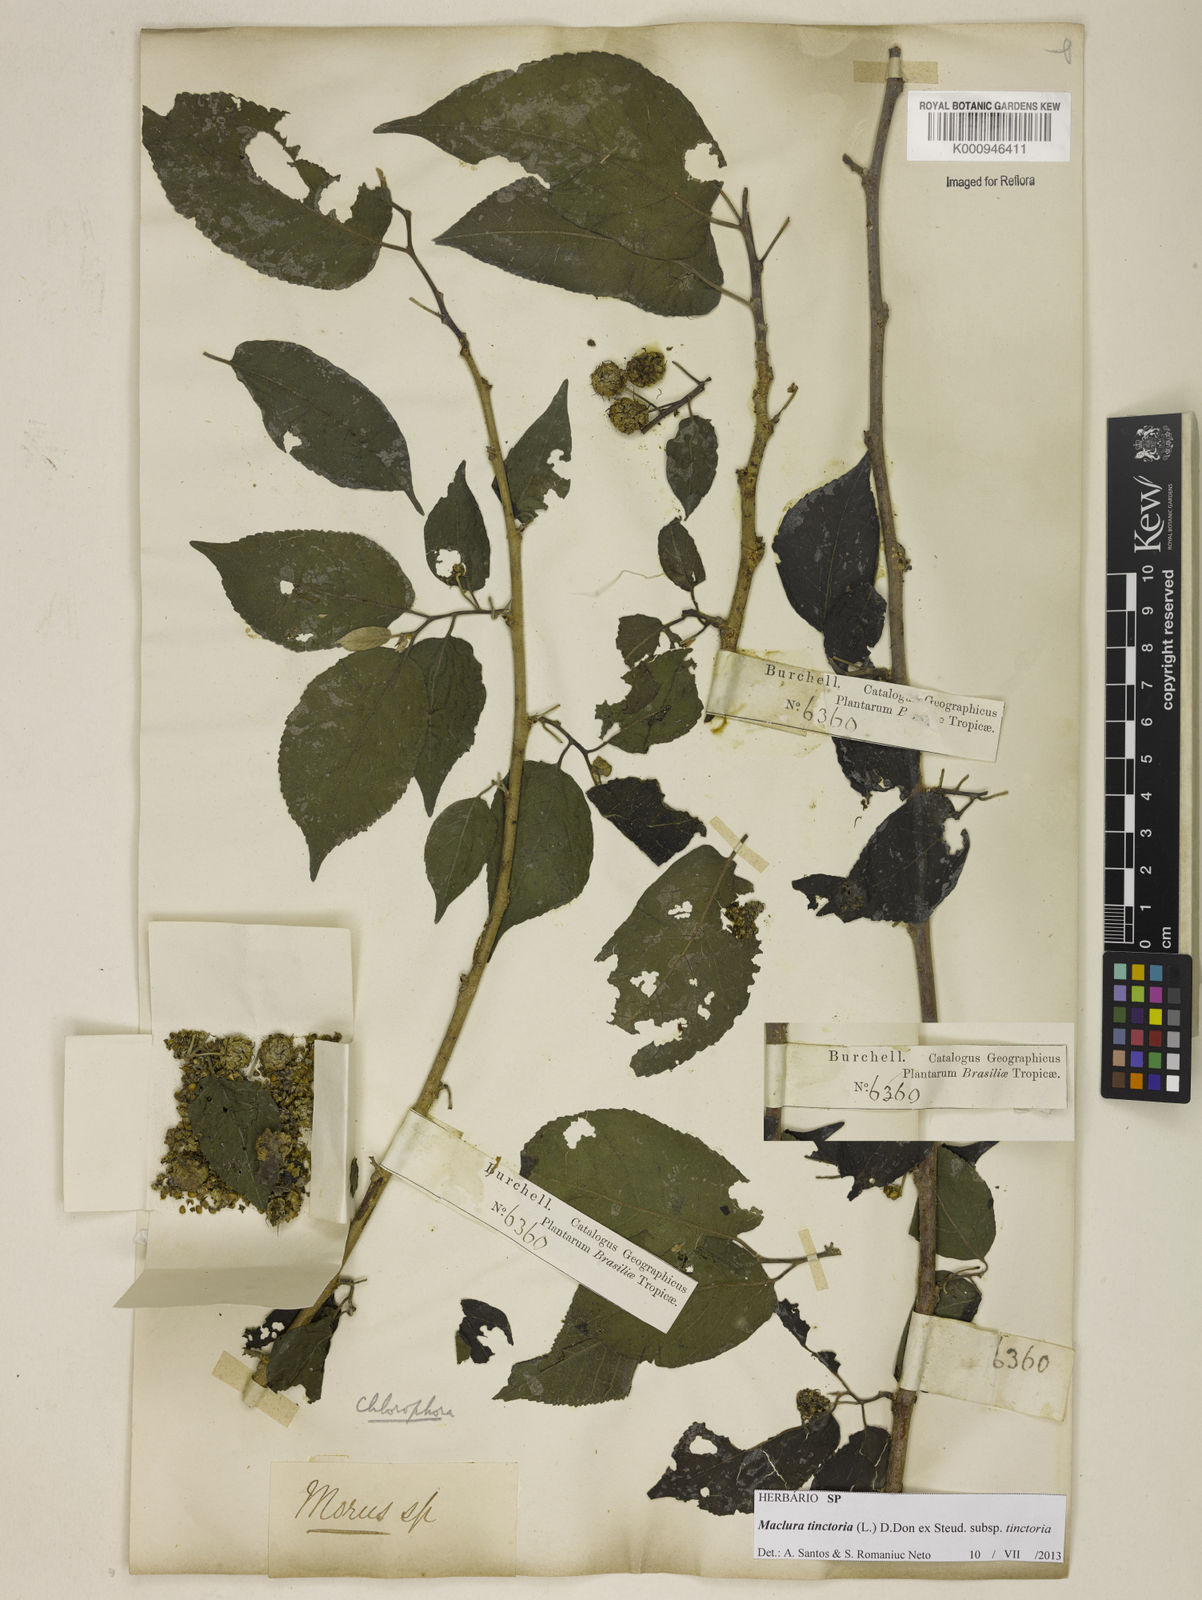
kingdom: Plantae
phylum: Tracheophyta
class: Magnoliopsida
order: Rosales
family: Moraceae
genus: Maclura
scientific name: Maclura tinctoria
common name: Old fustic
